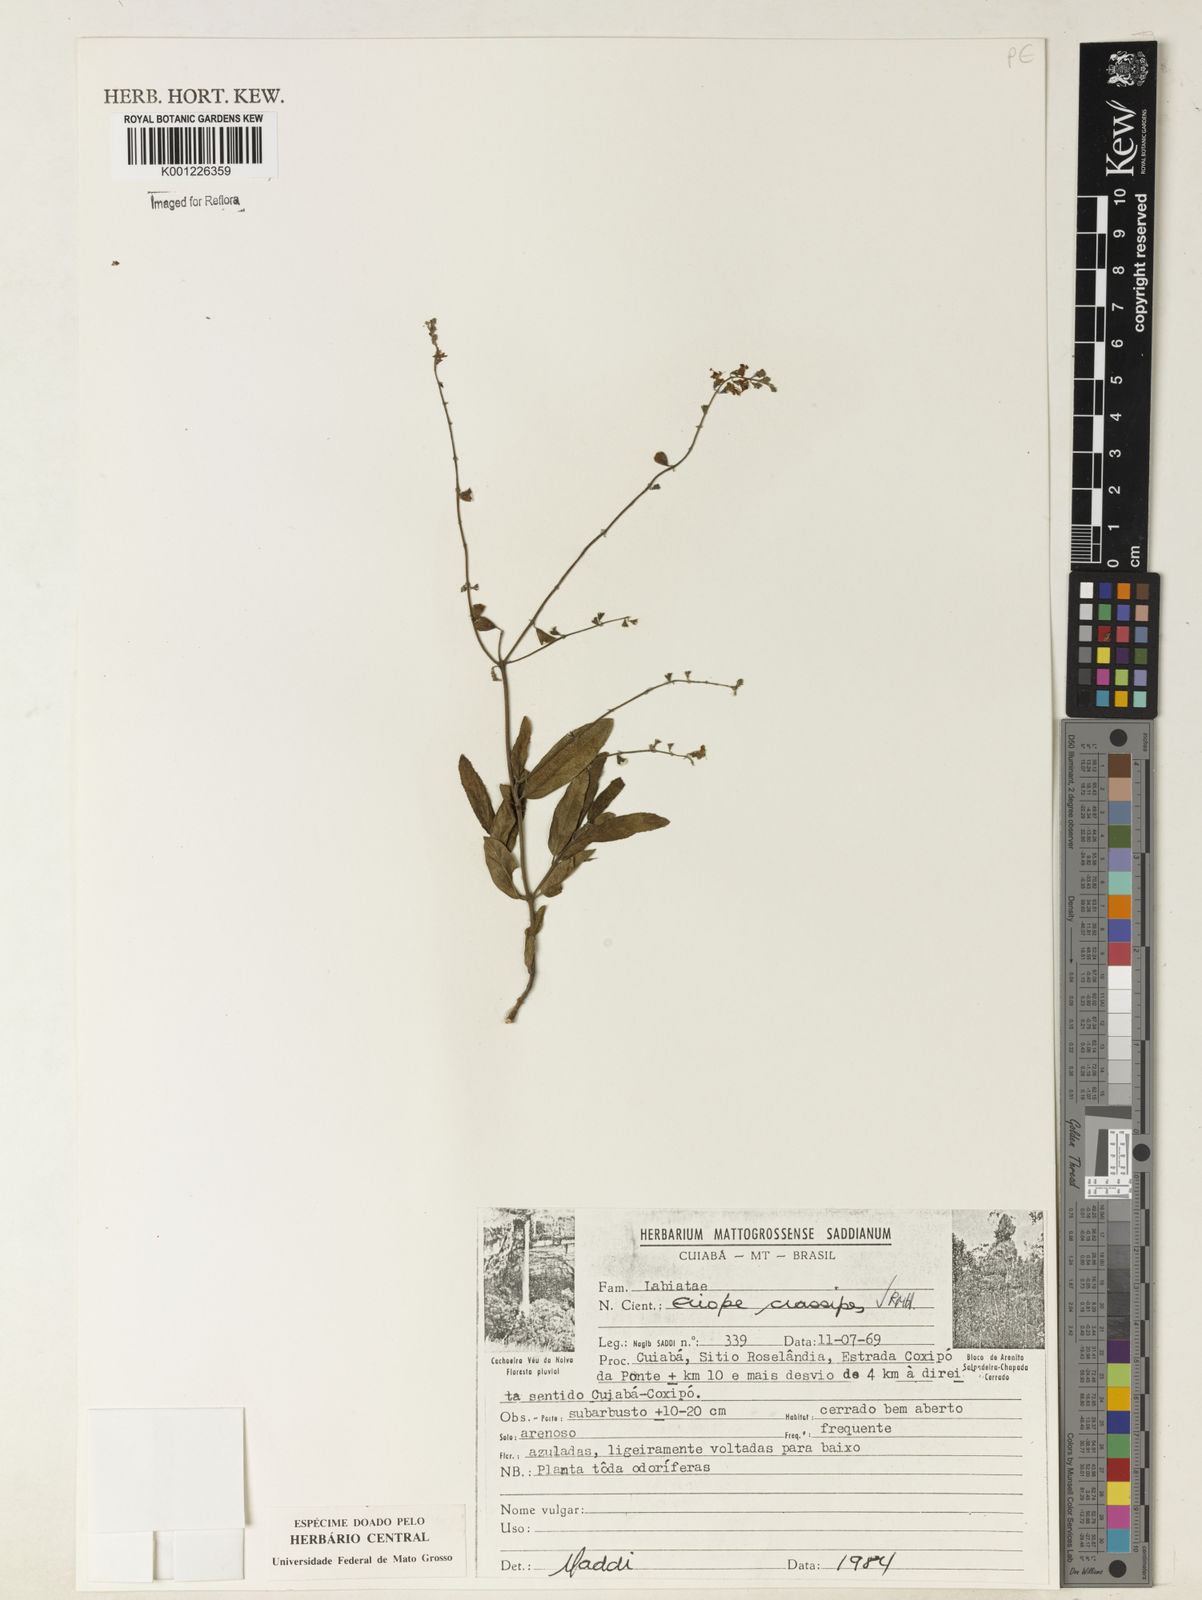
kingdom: Plantae
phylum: Tracheophyta
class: Magnoliopsida
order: Lamiales
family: Lamiaceae
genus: Eriope
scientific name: Eriope crassipes
